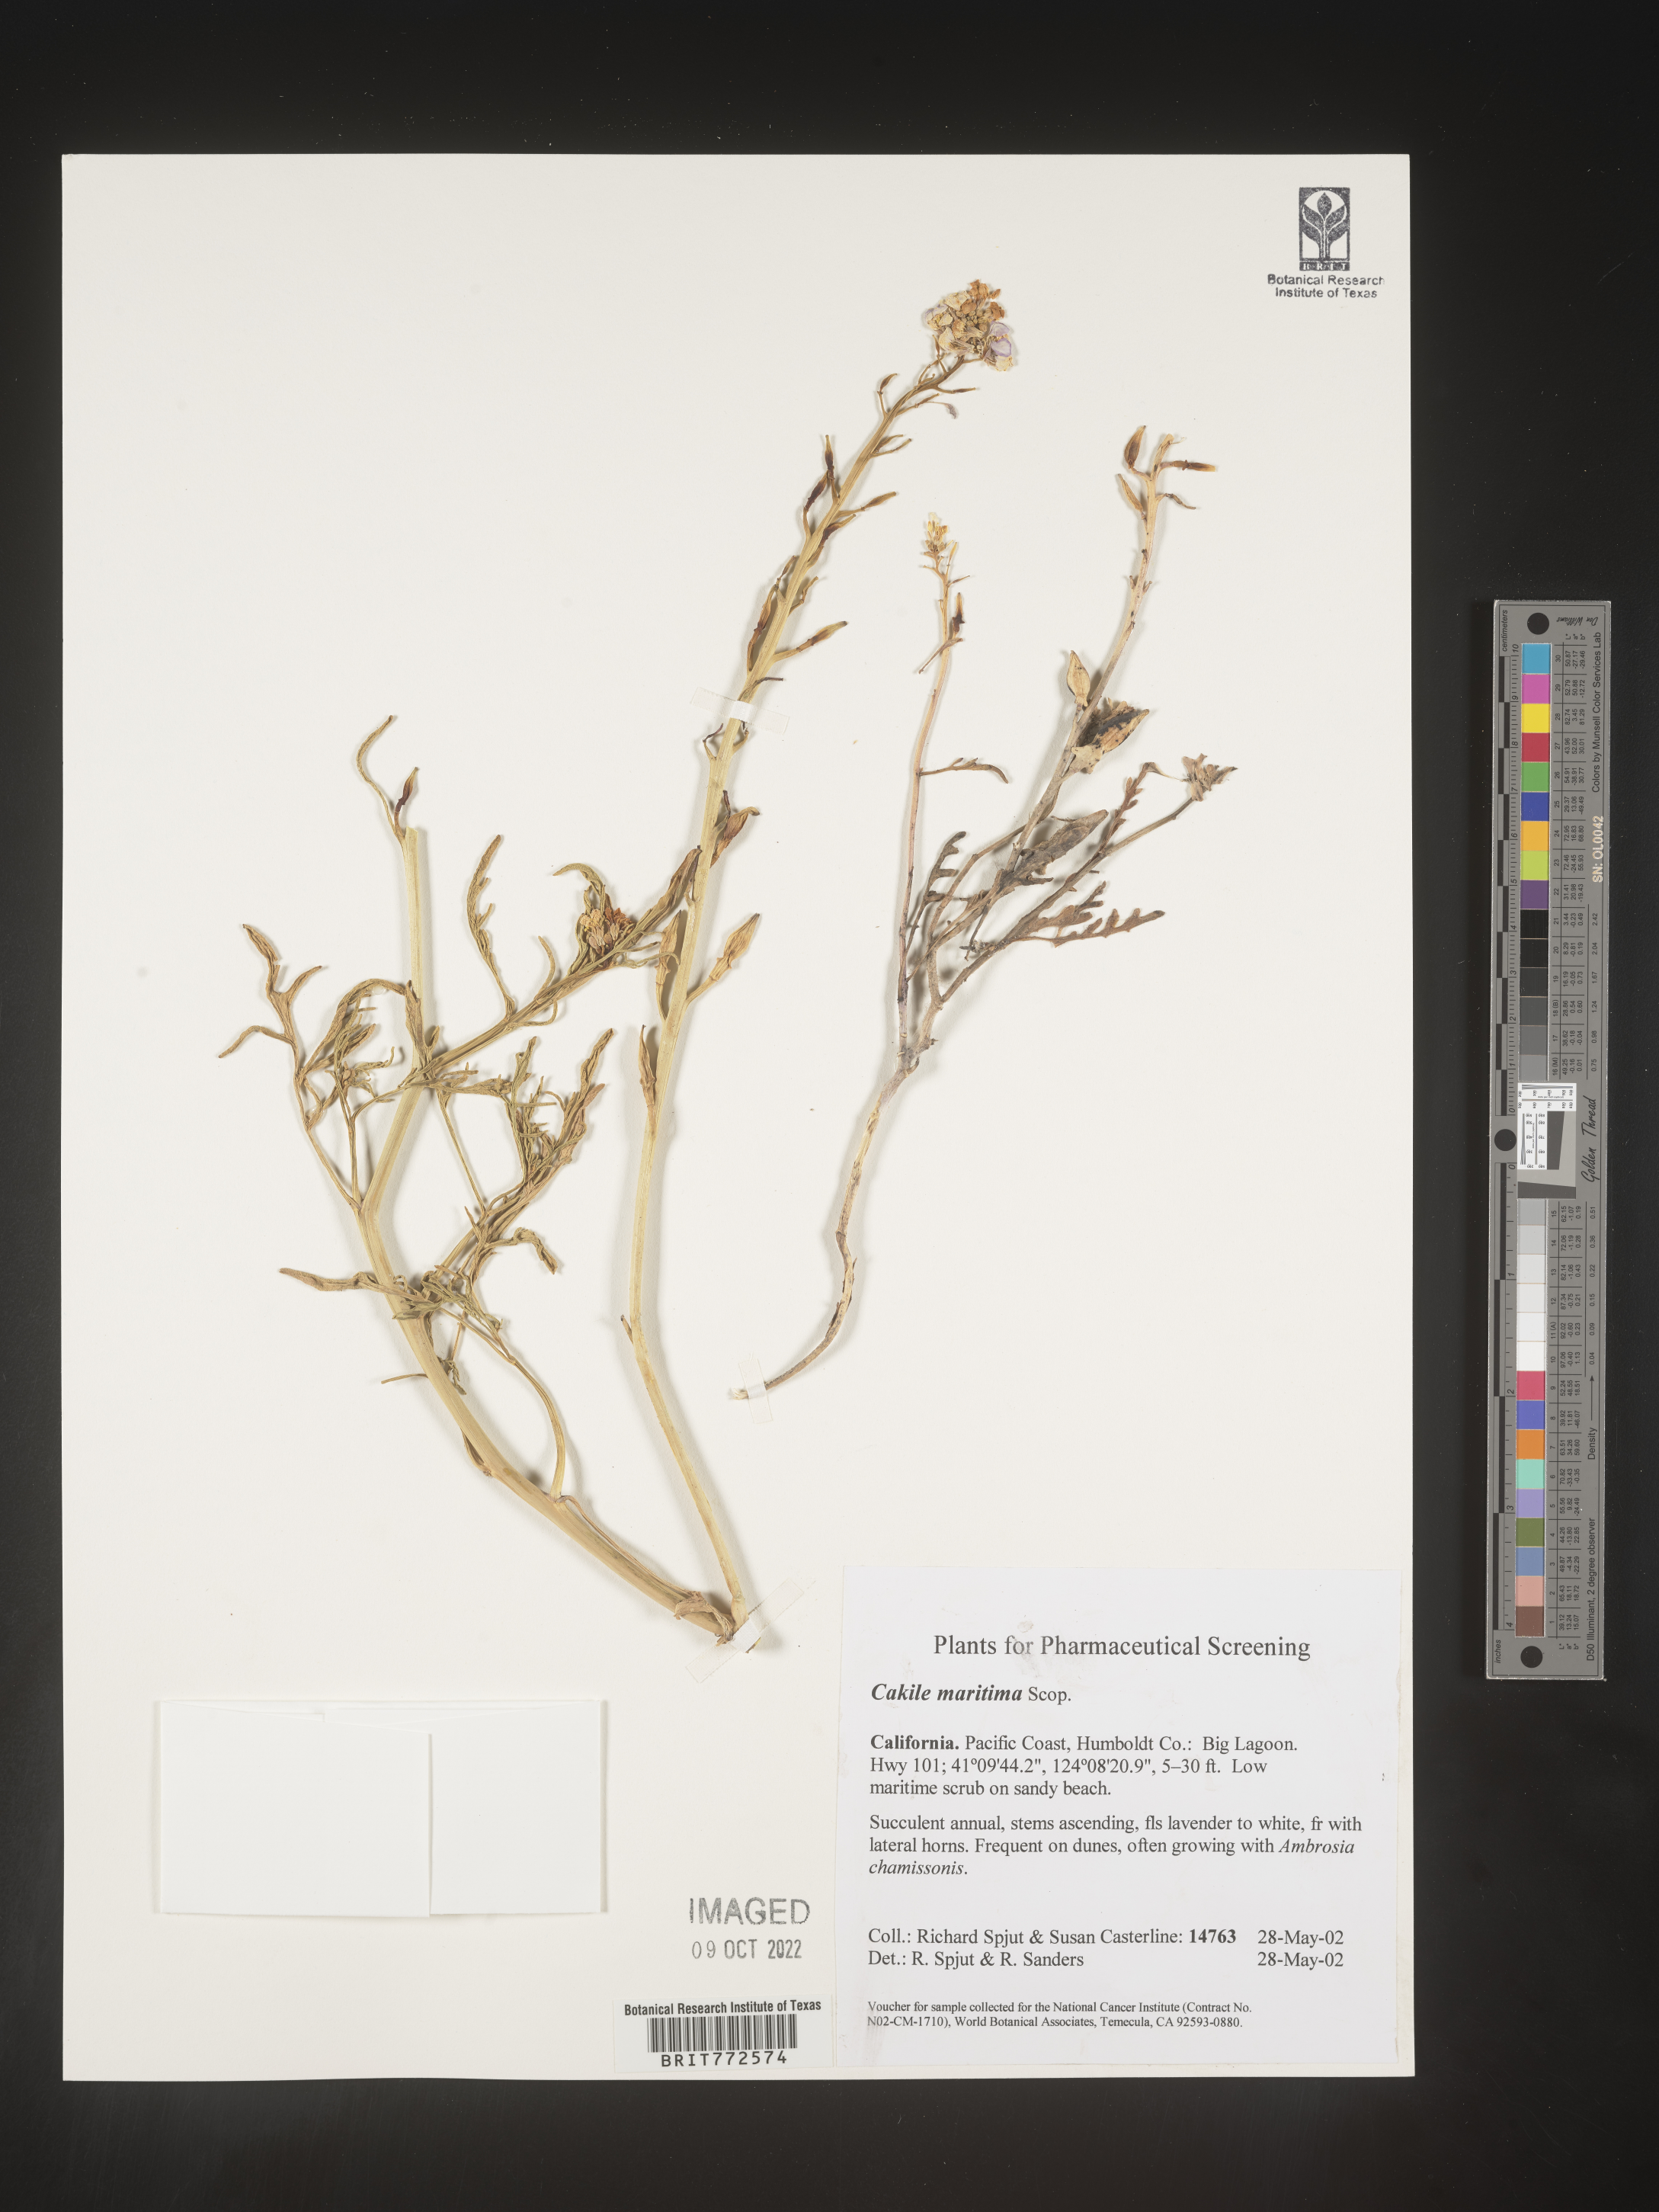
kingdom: Plantae
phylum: Tracheophyta
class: Magnoliopsida
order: Brassicales
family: Brassicaceae
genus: Cakile
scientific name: Cakile maritima
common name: Sea rocket
